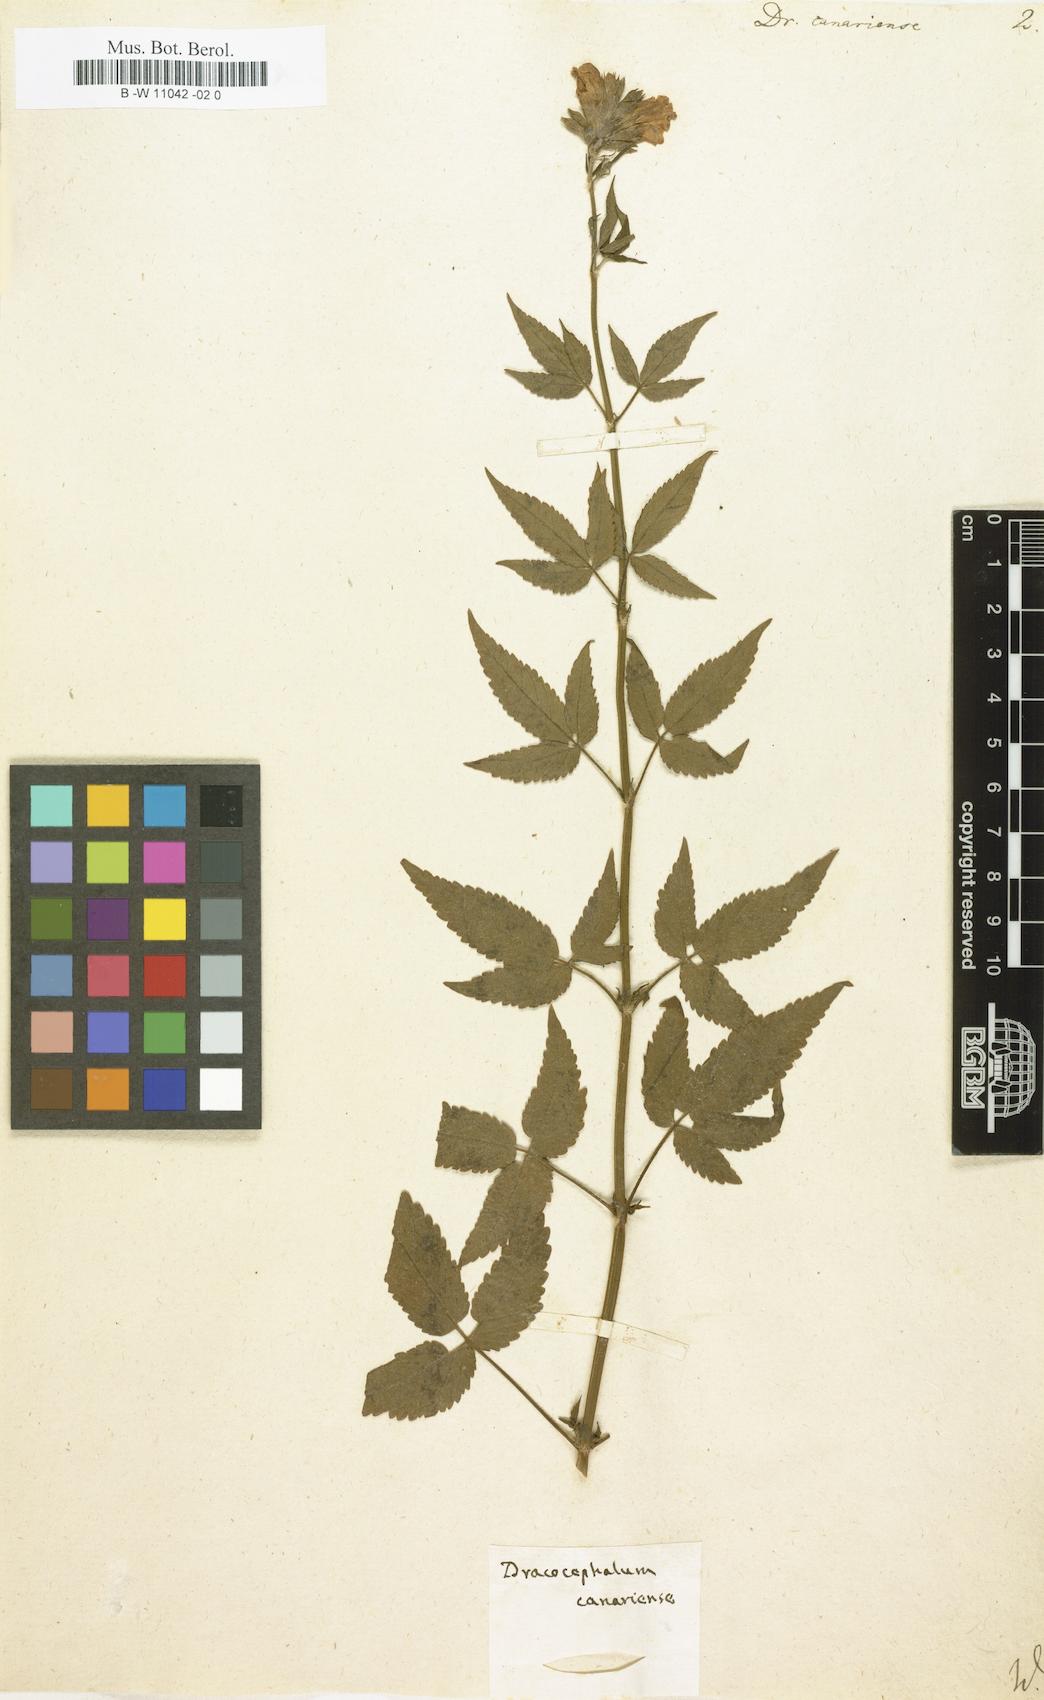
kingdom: Plantae
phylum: Tracheophyta
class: Magnoliopsida
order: Lamiales
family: Lamiaceae
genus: Cedronella
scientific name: Cedronella canariensis
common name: Canary islands balm
